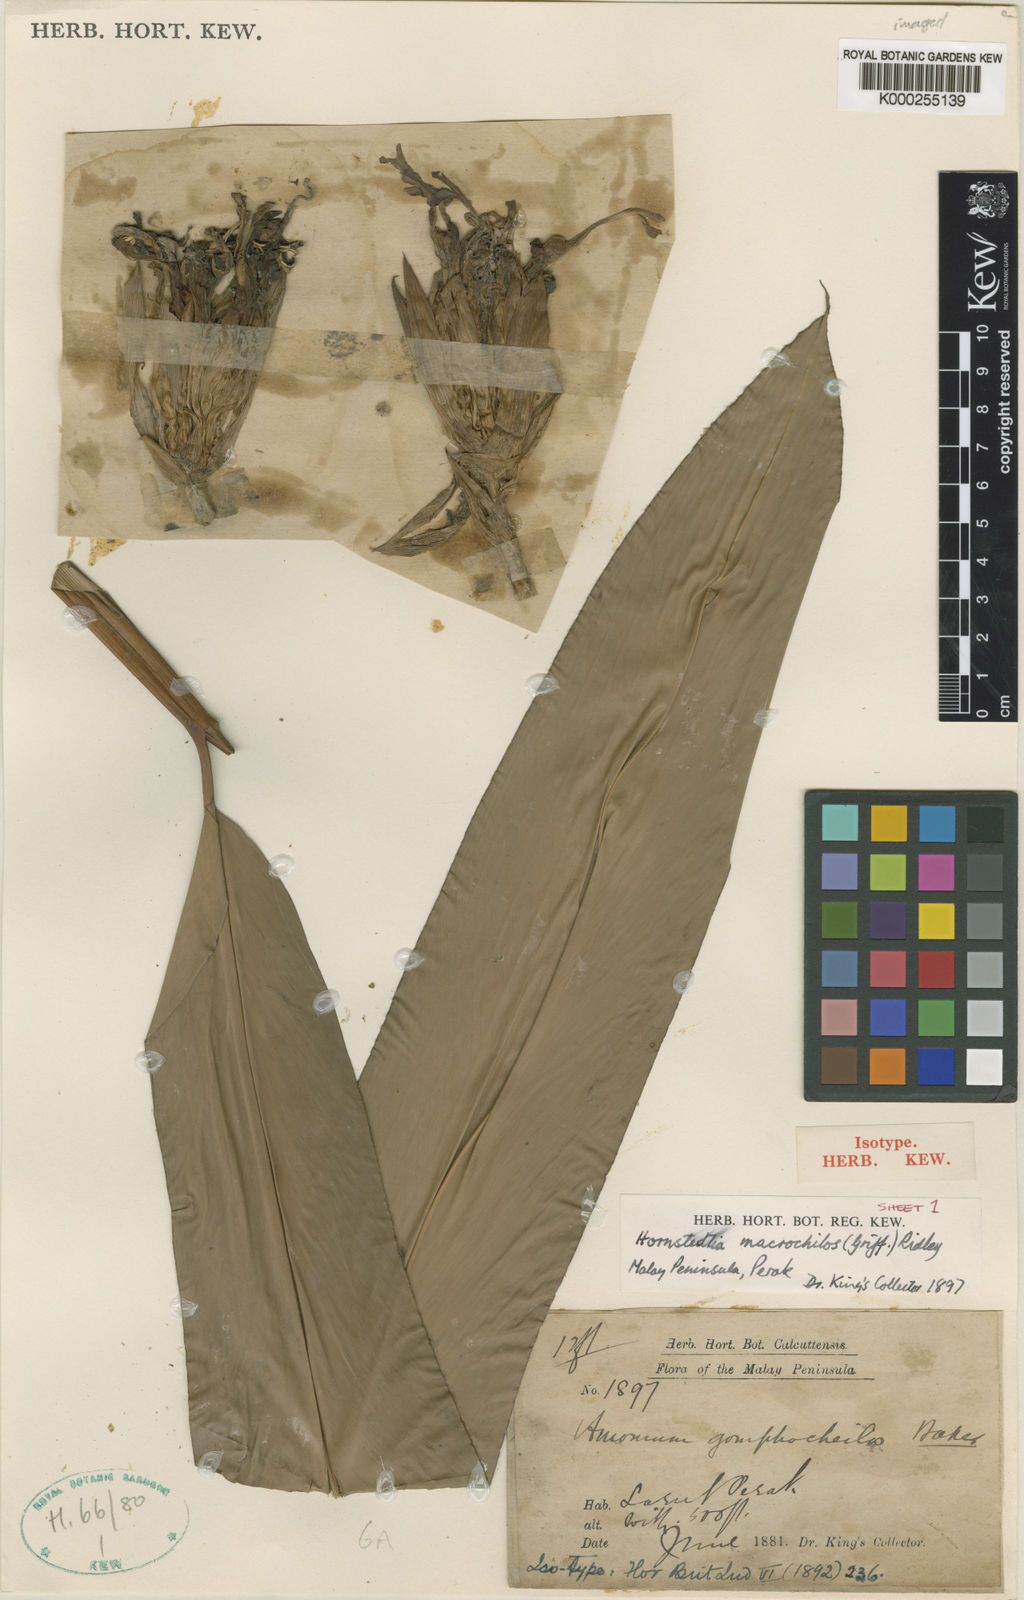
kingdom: Plantae
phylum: Tracheophyta
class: Liliopsida
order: Zingiberales
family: Zingiberaceae
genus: Etlingera
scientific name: Etlingera punicea
